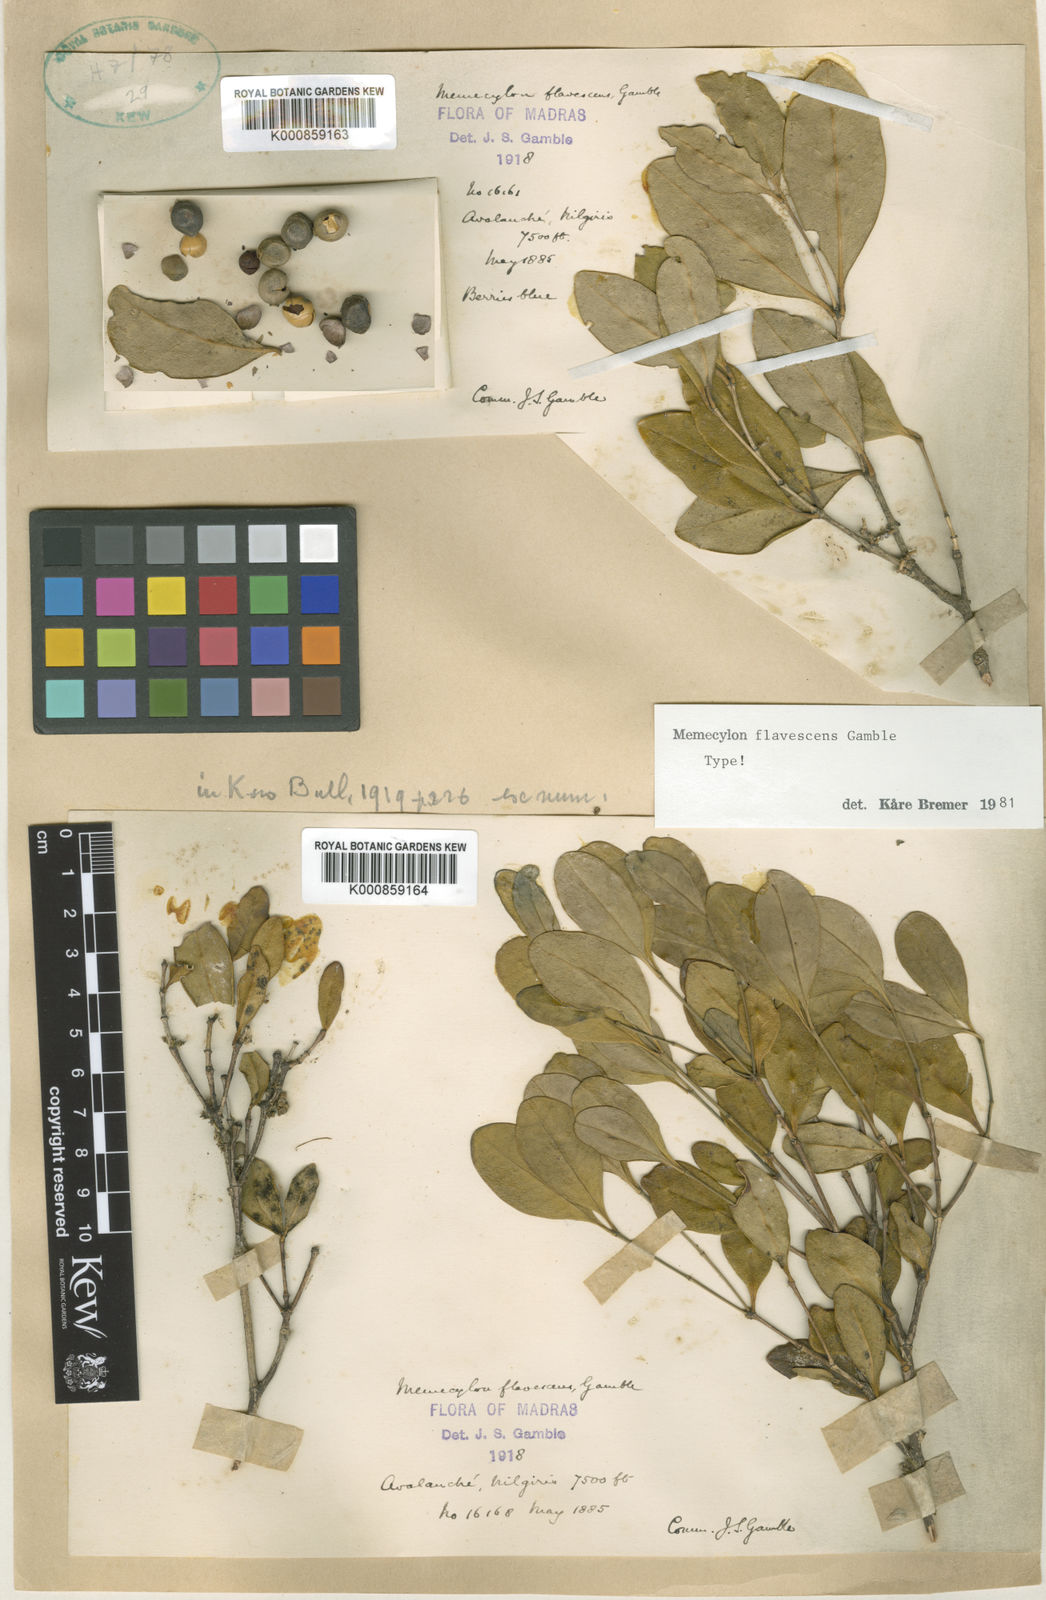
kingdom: Plantae
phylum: Tracheophyta
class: Magnoliopsida
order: Myrtales
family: Melastomataceae
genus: Memecylon
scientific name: Memecylon flavescens
